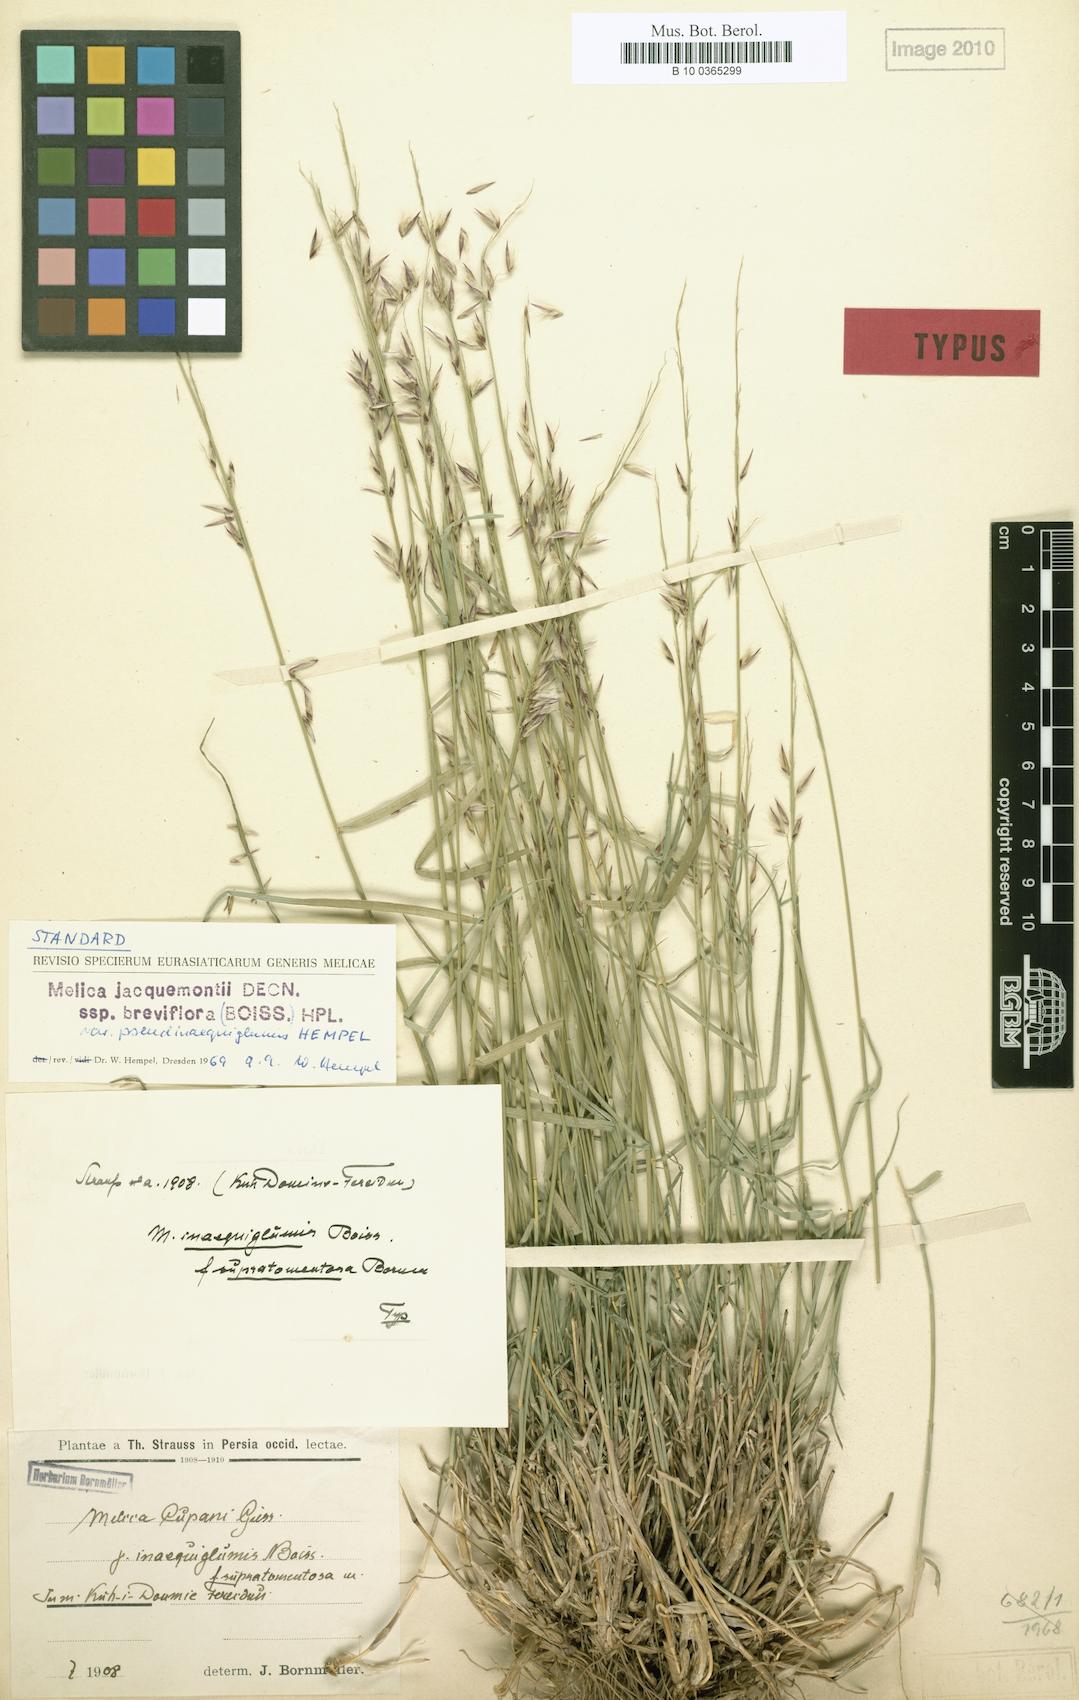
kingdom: Plantae
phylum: Tracheophyta
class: Liliopsida
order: Poales
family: Poaceae
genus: Melica
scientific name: Melica persica
